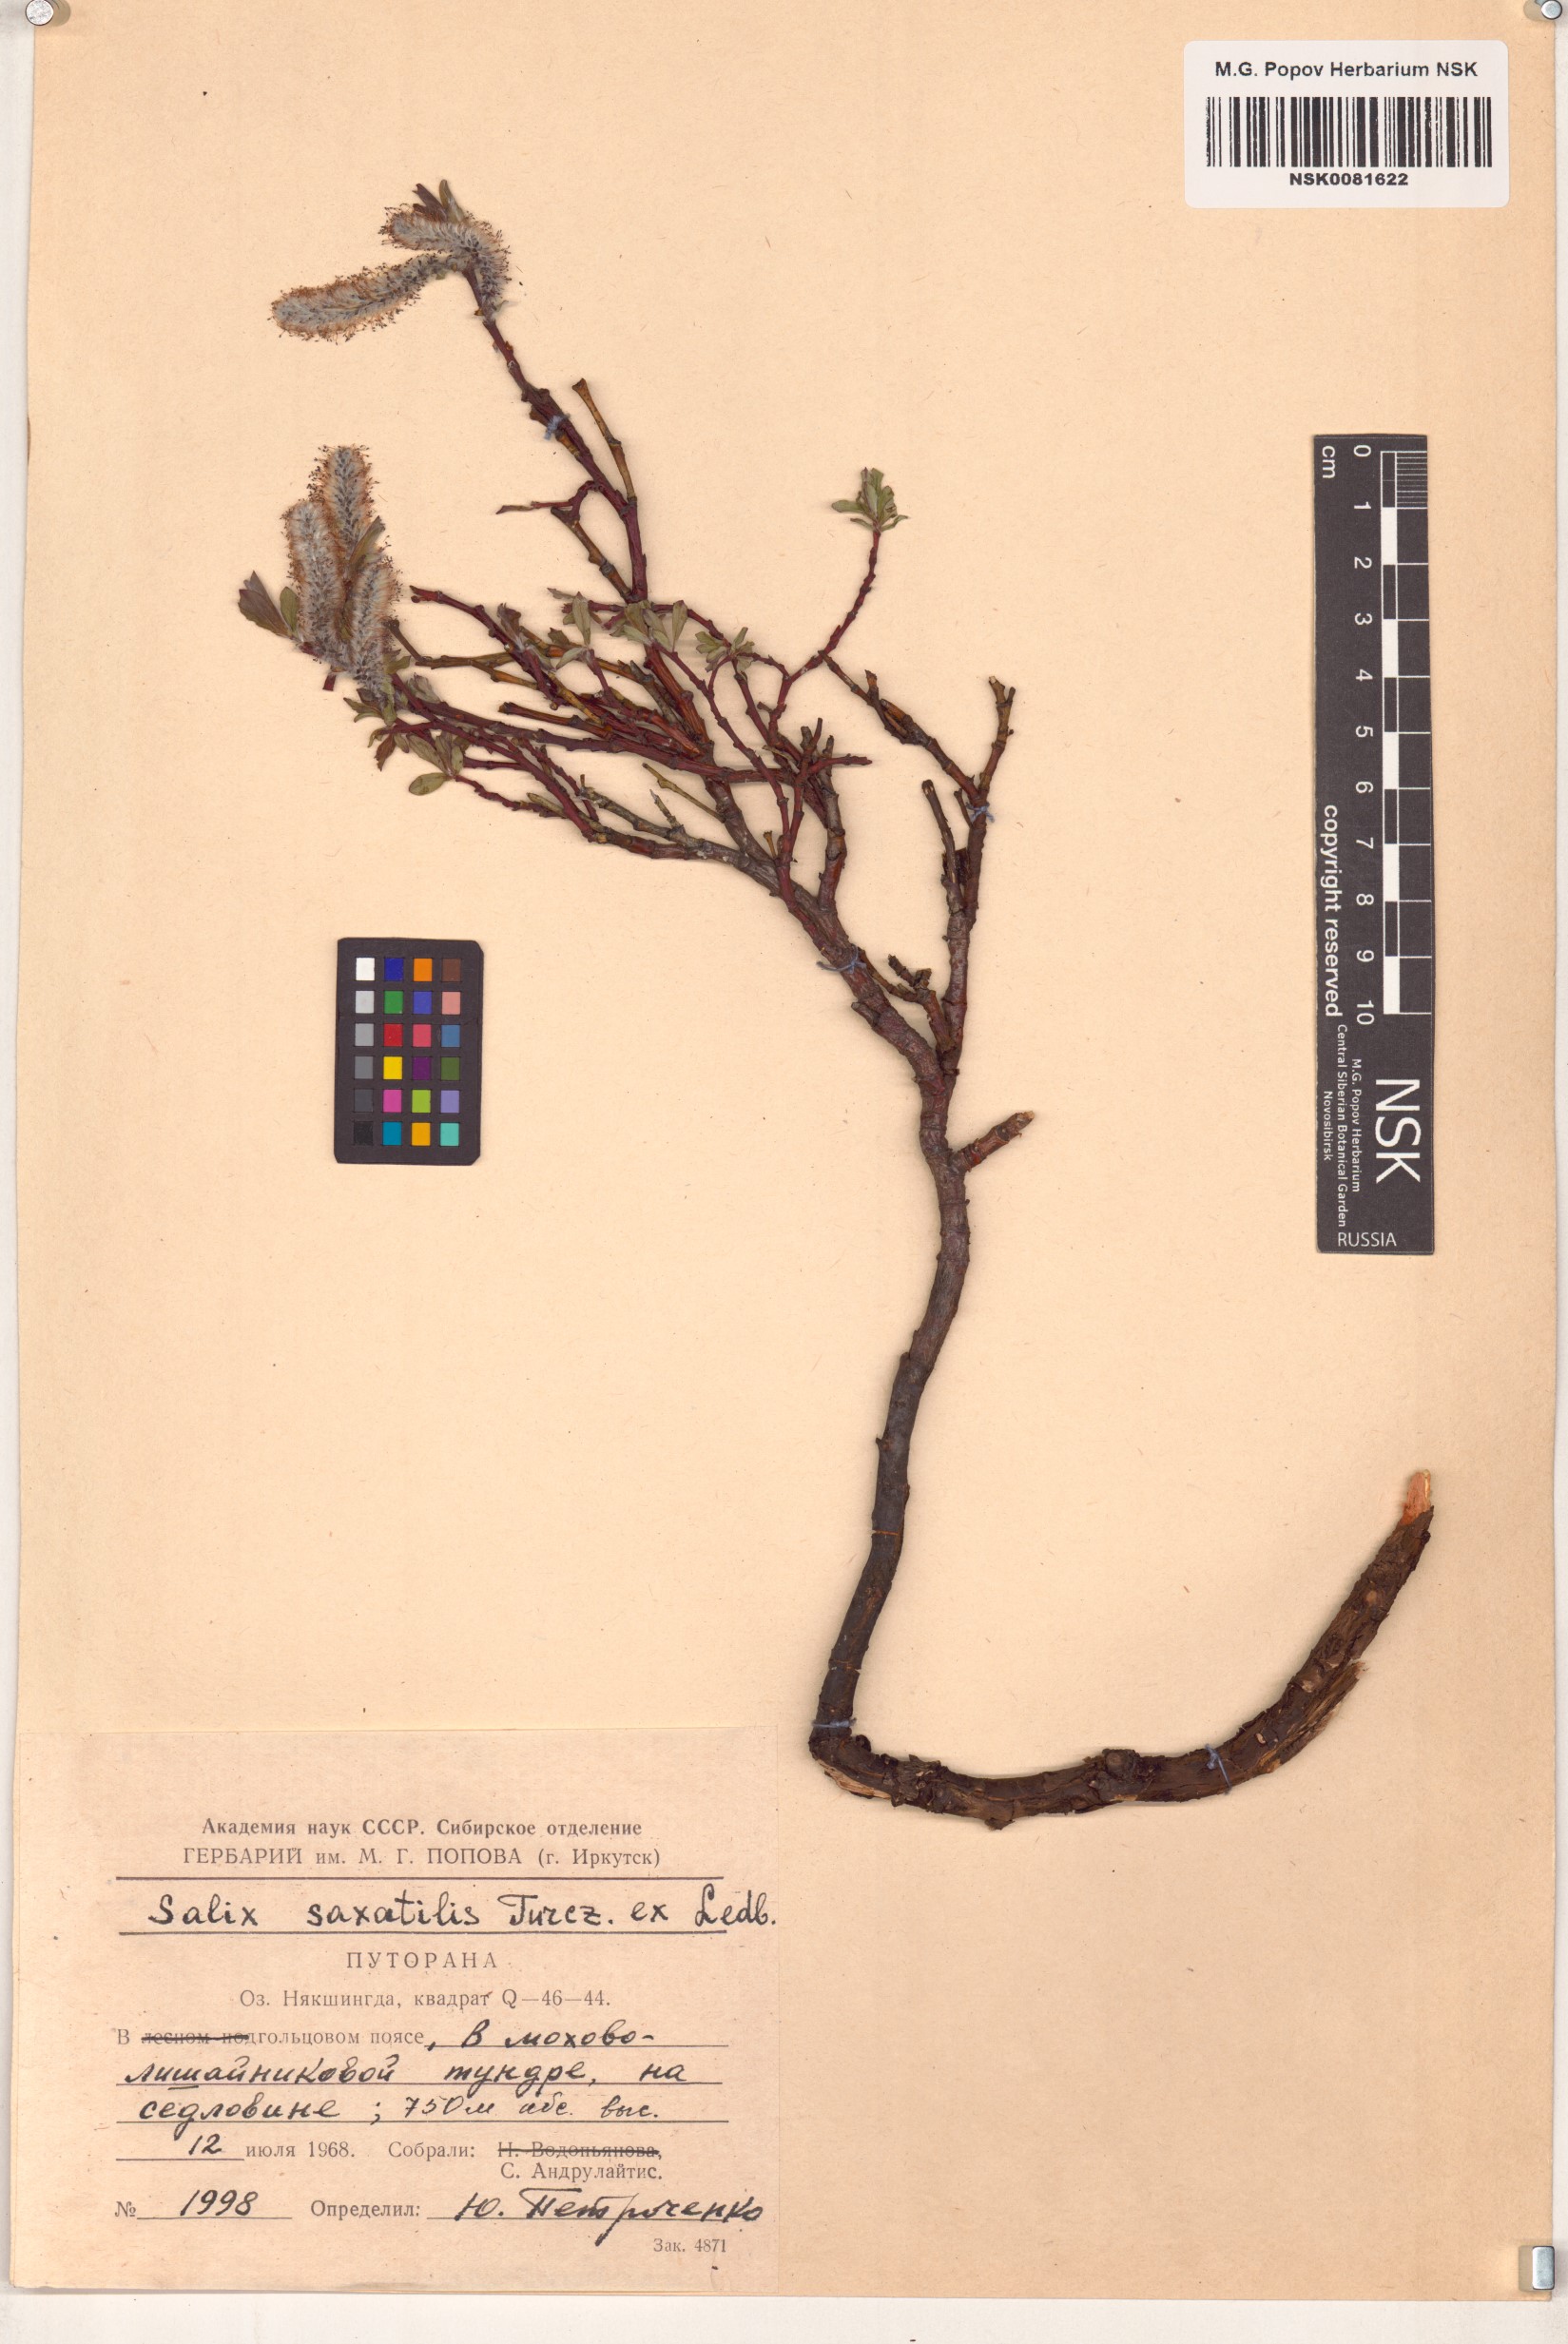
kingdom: Plantae
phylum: Tracheophyta
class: Magnoliopsida
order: Malpighiales
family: Salicaceae
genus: Salix
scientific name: Salix saxatilis
